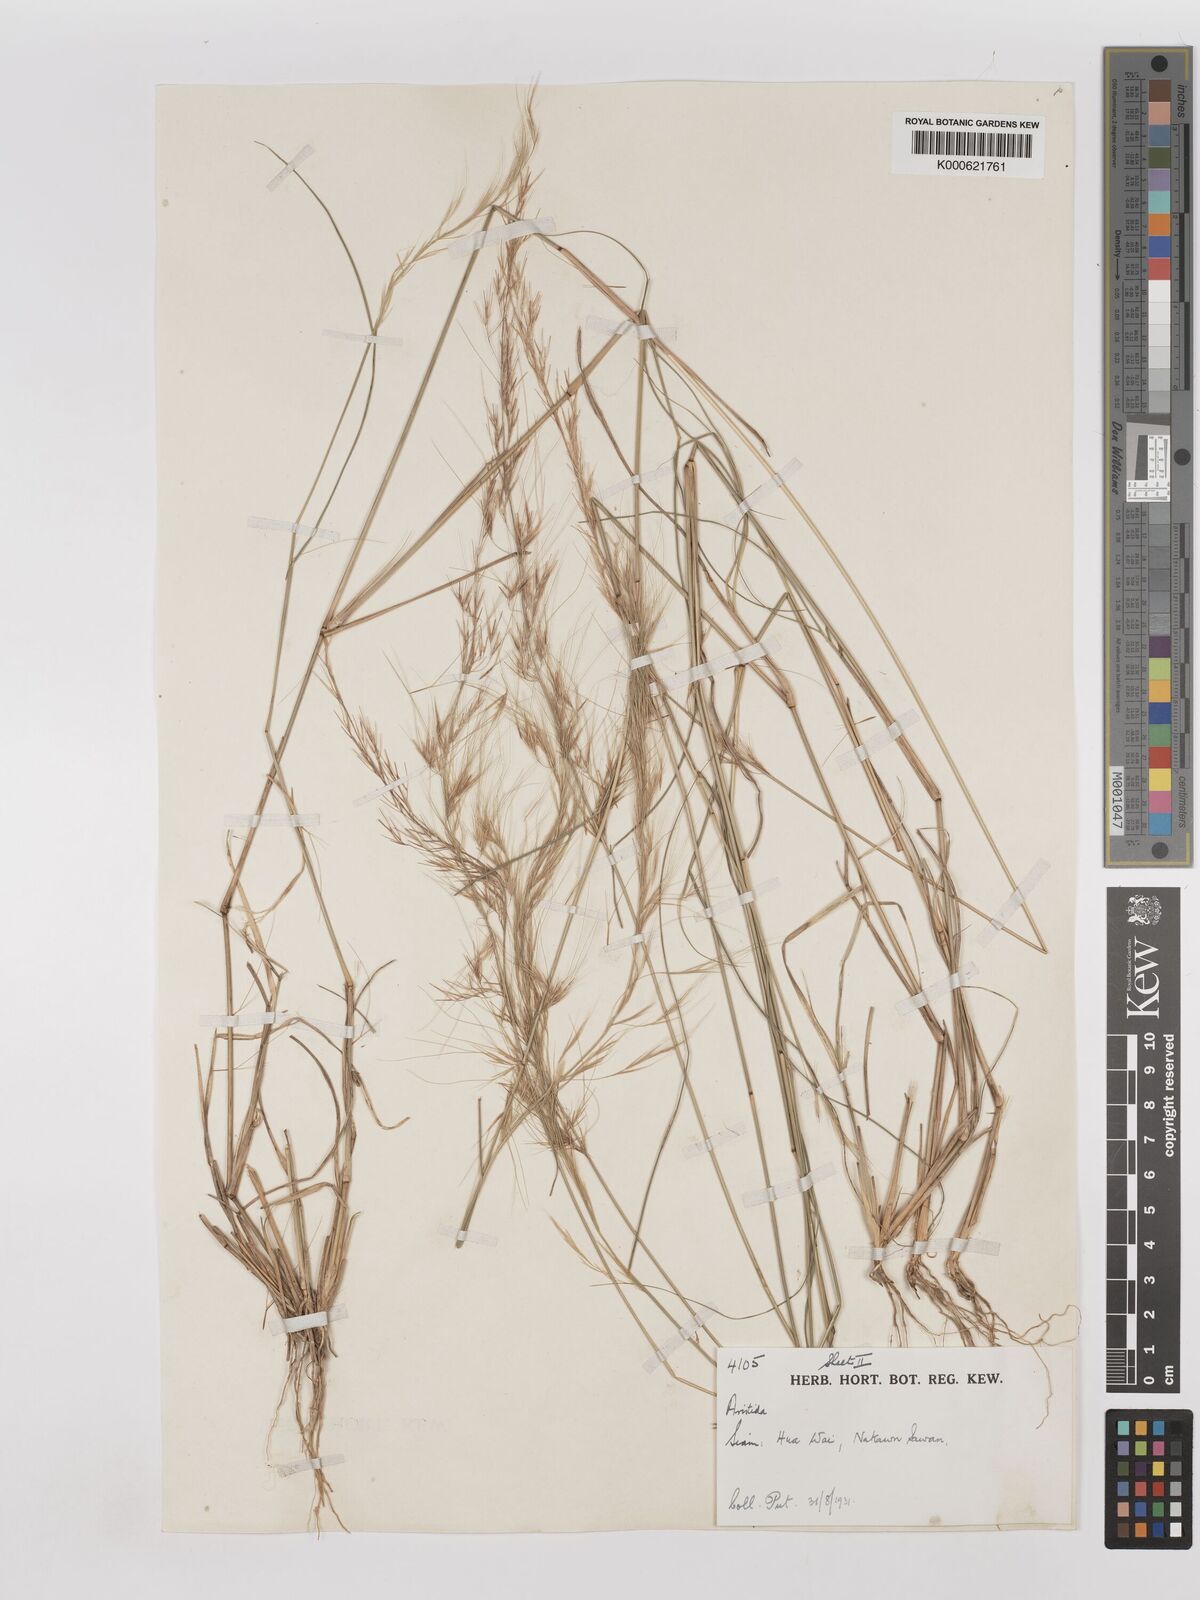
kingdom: Plantae
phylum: Tracheophyta
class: Liliopsida
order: Poales
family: Poaceae
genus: Aristida
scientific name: Aristida
